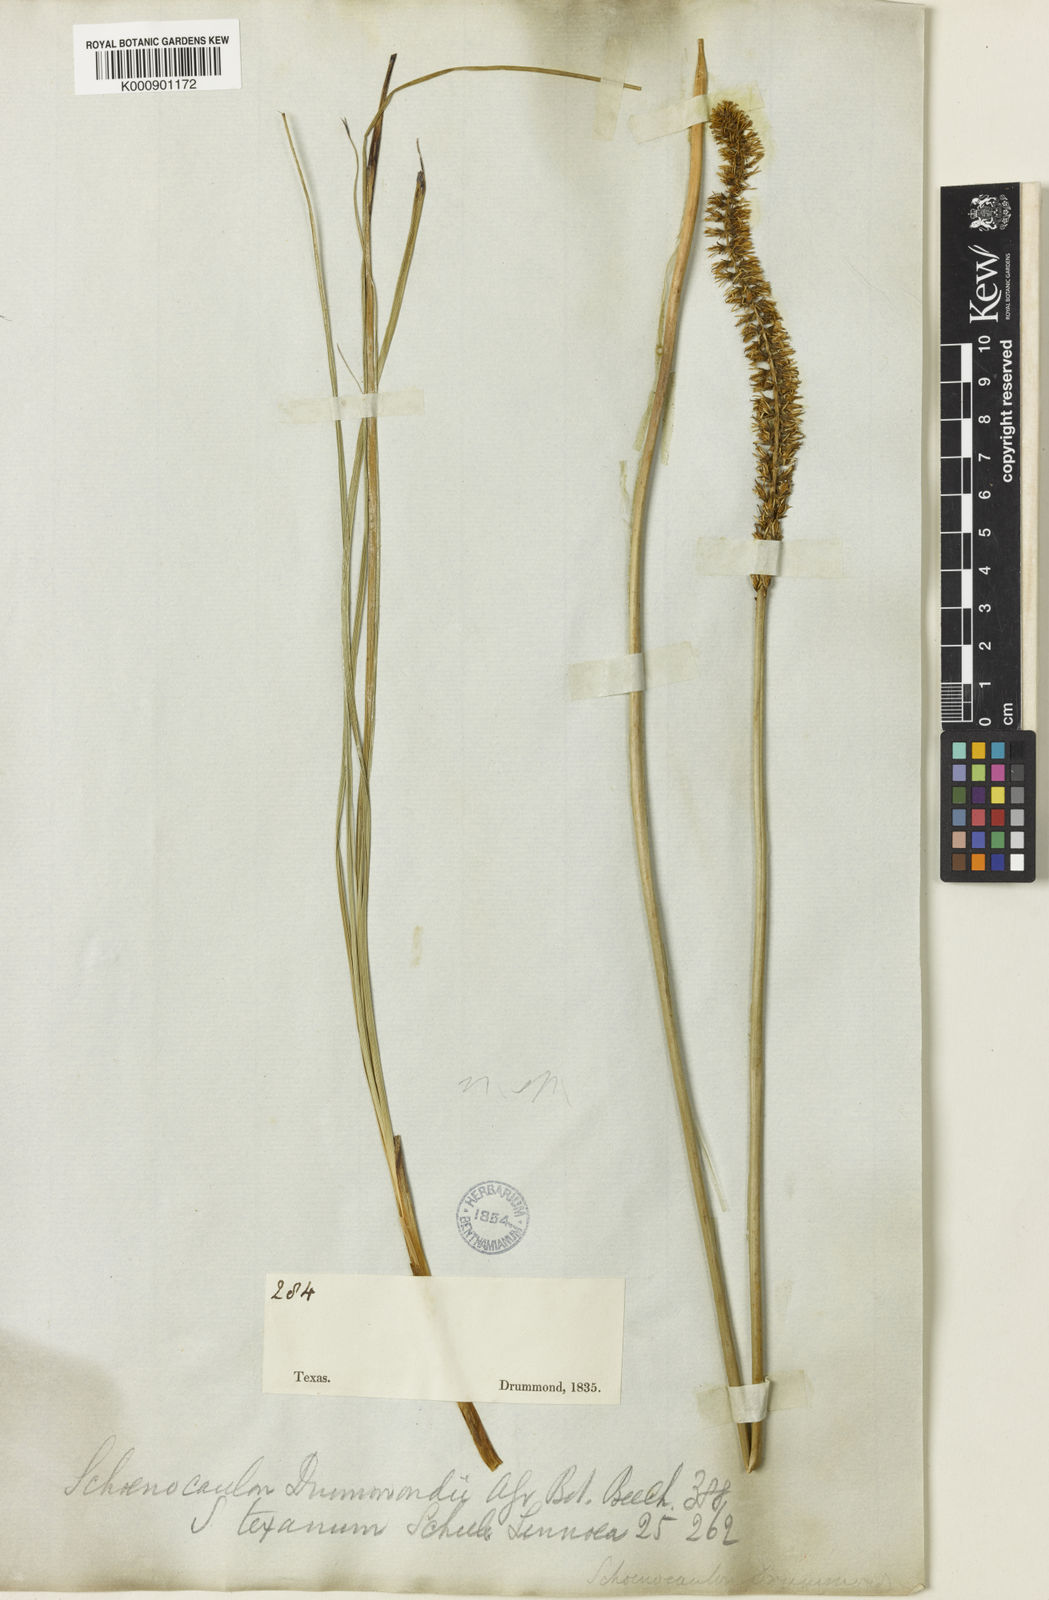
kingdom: Plantae
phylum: Tracheophyta
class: Liliopsida
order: Liliales
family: Melanthiaceae
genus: Schoenocaulon
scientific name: Schoenocaulon texanum
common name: Texas feather-shank
